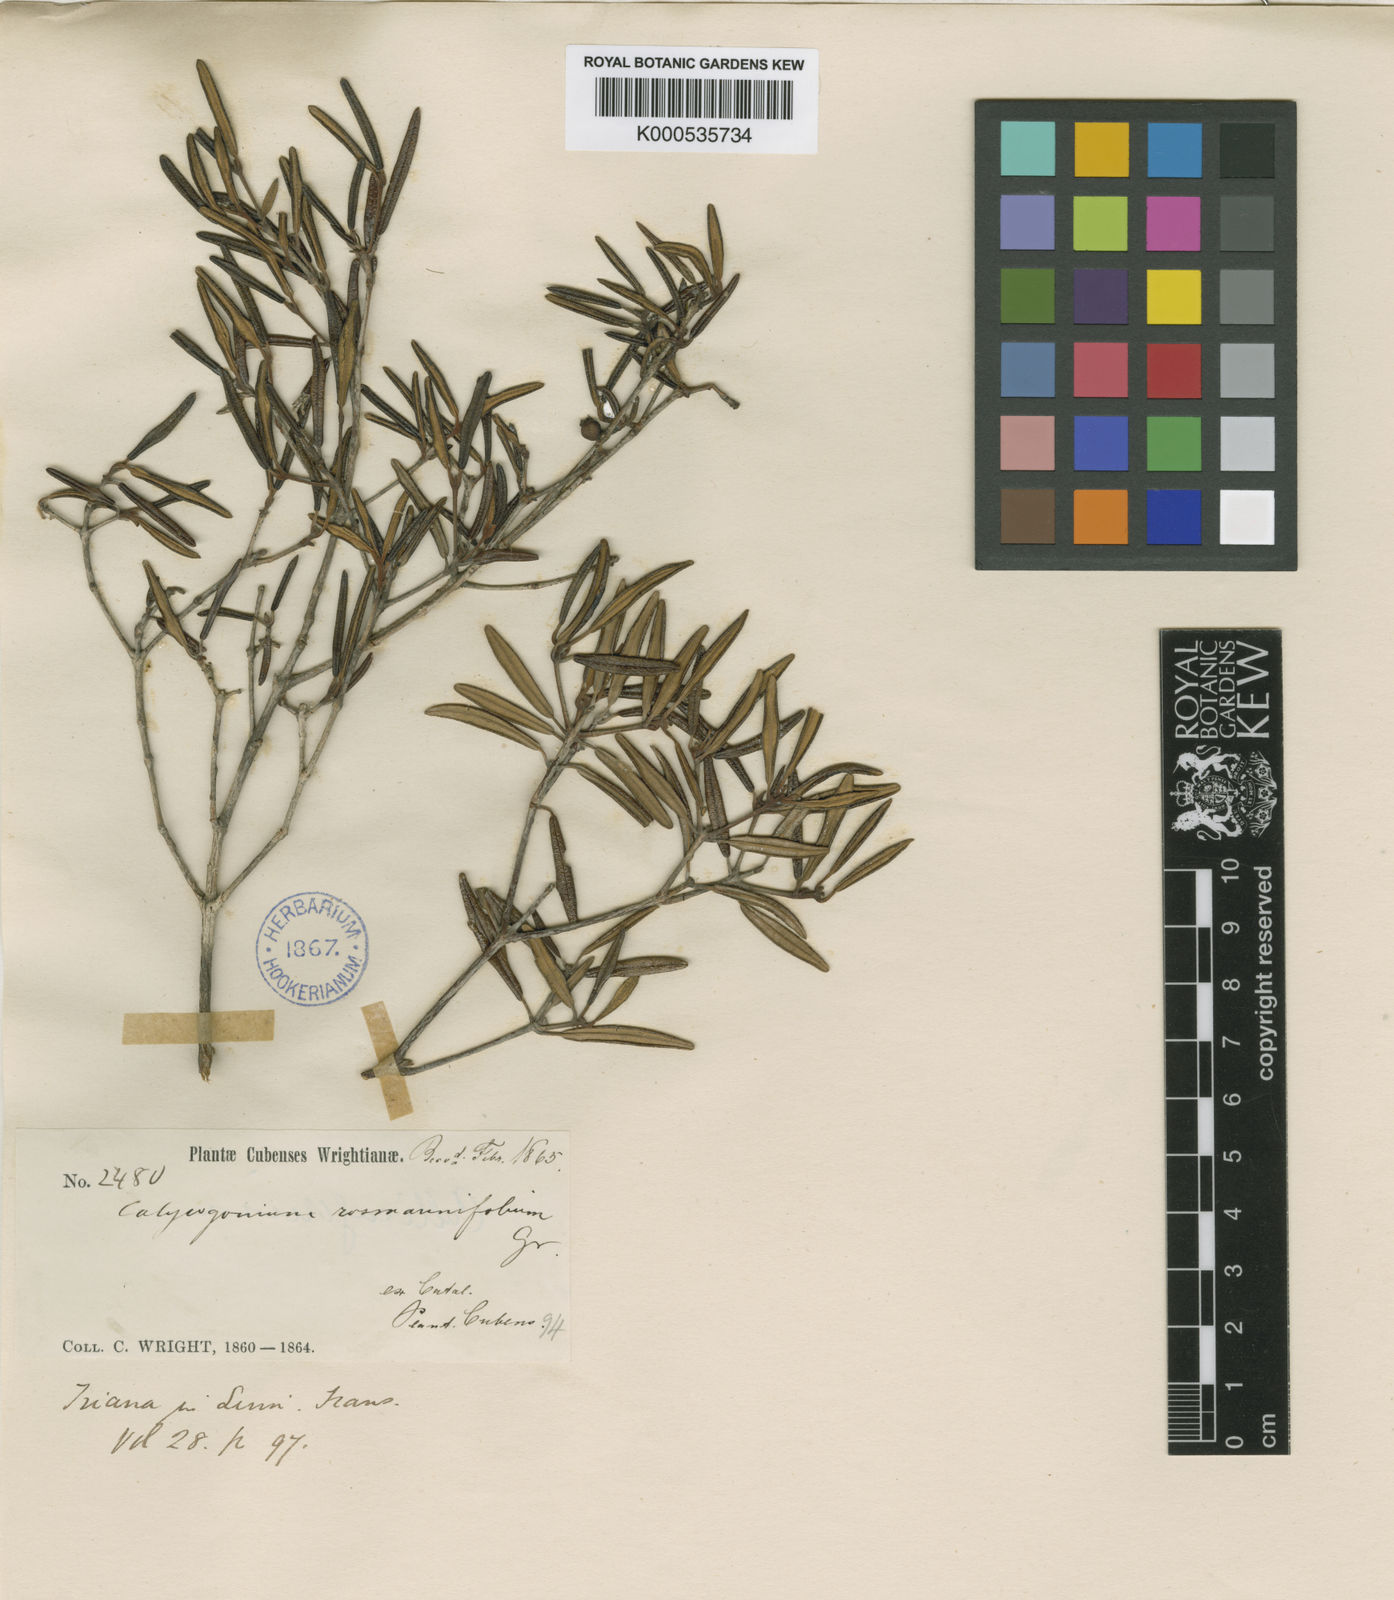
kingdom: Plantae
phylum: Tracheophyta
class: Magnoliopsida
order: Myrtales
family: Melastomataceae
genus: Miconia
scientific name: Miconia rosmarinifolia
